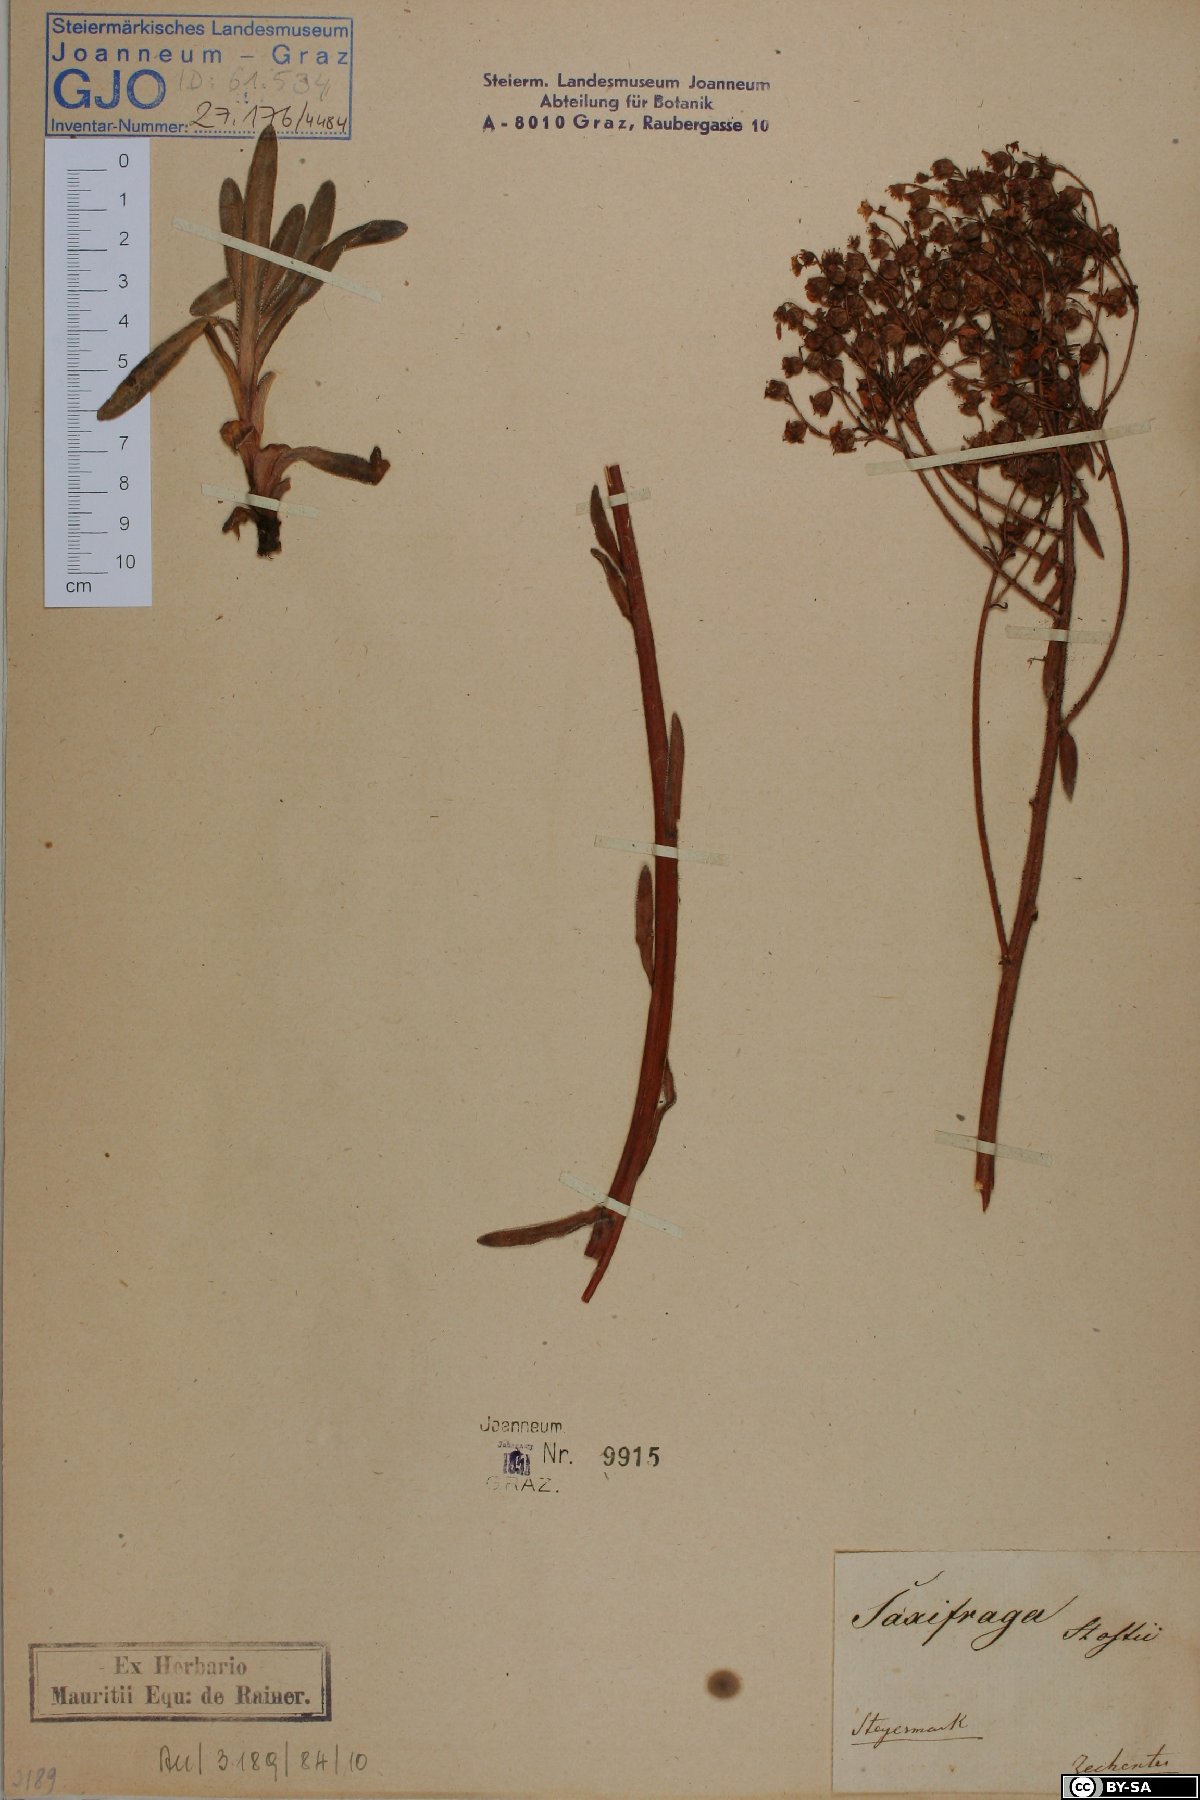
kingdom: Plantae
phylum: Tracheophyta
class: Magnoliopsida
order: Saxifragales
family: Saxifragaceae
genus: Saxifraga
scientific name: Saxifraga hostii
